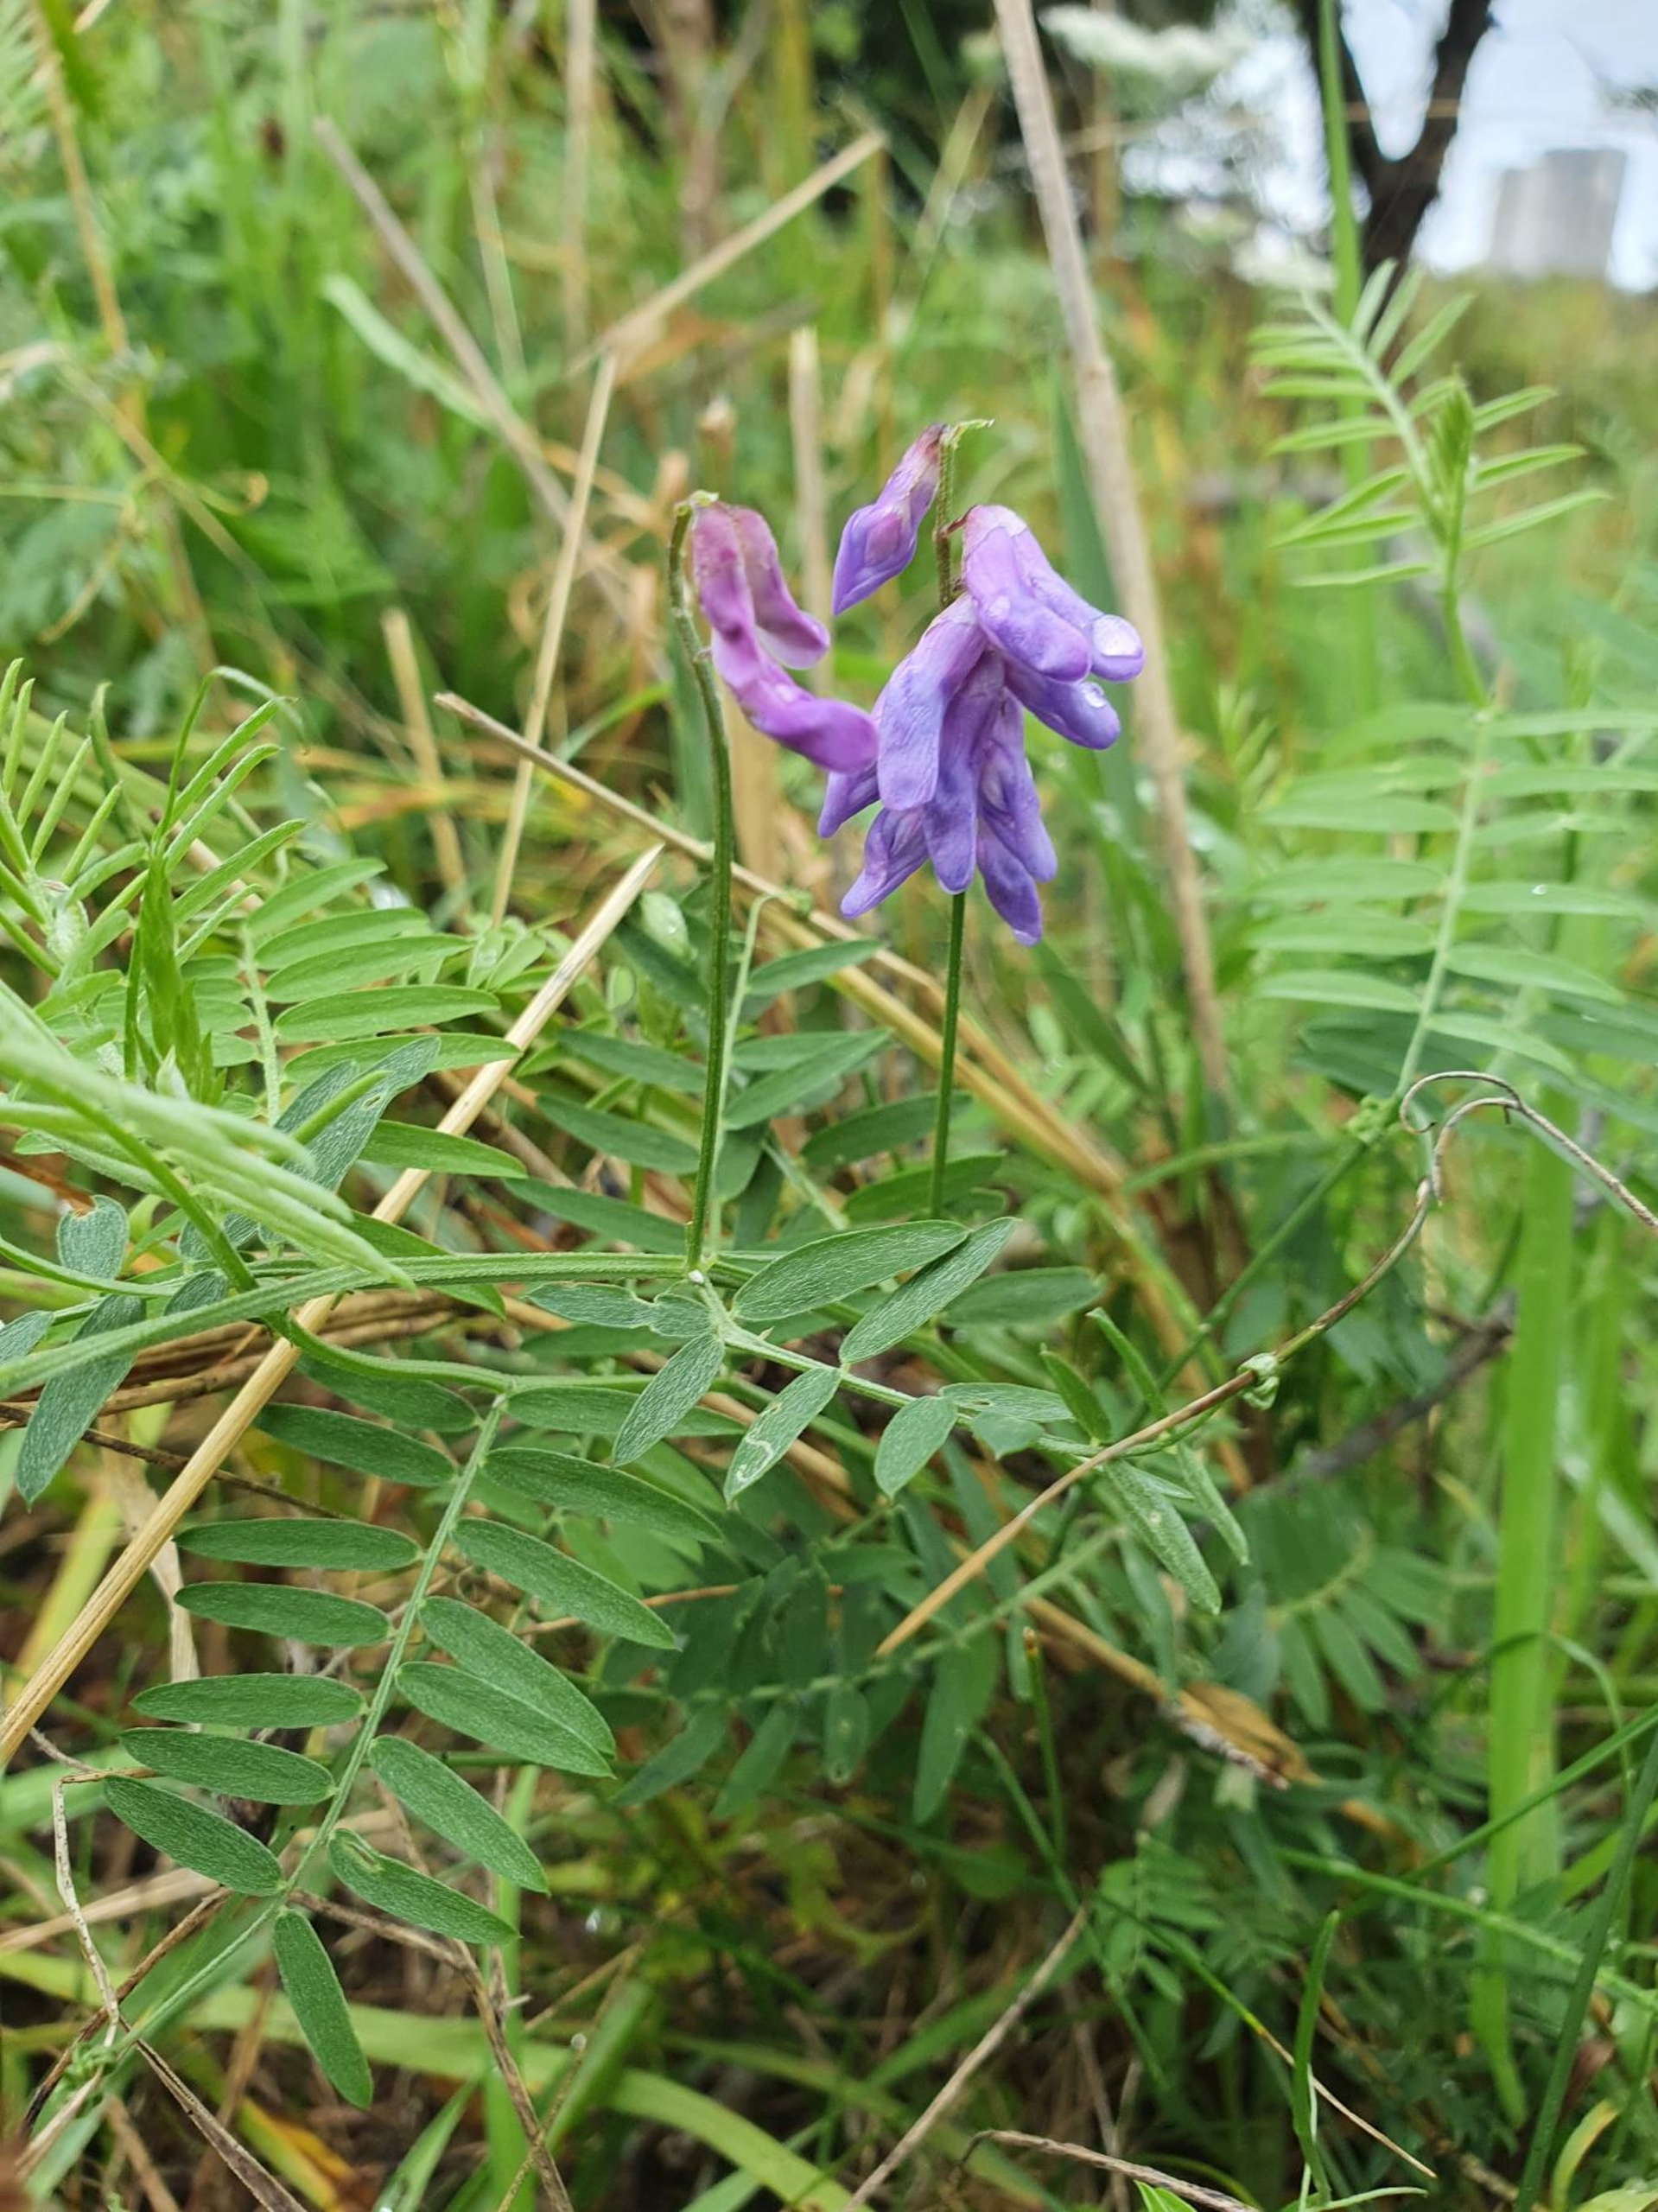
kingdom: Plantae
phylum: Tracheophyta
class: Magnoliopsida
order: Fabales
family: Fabaceae
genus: Vicia
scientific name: Vicia cracca
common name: Muse-vikke
